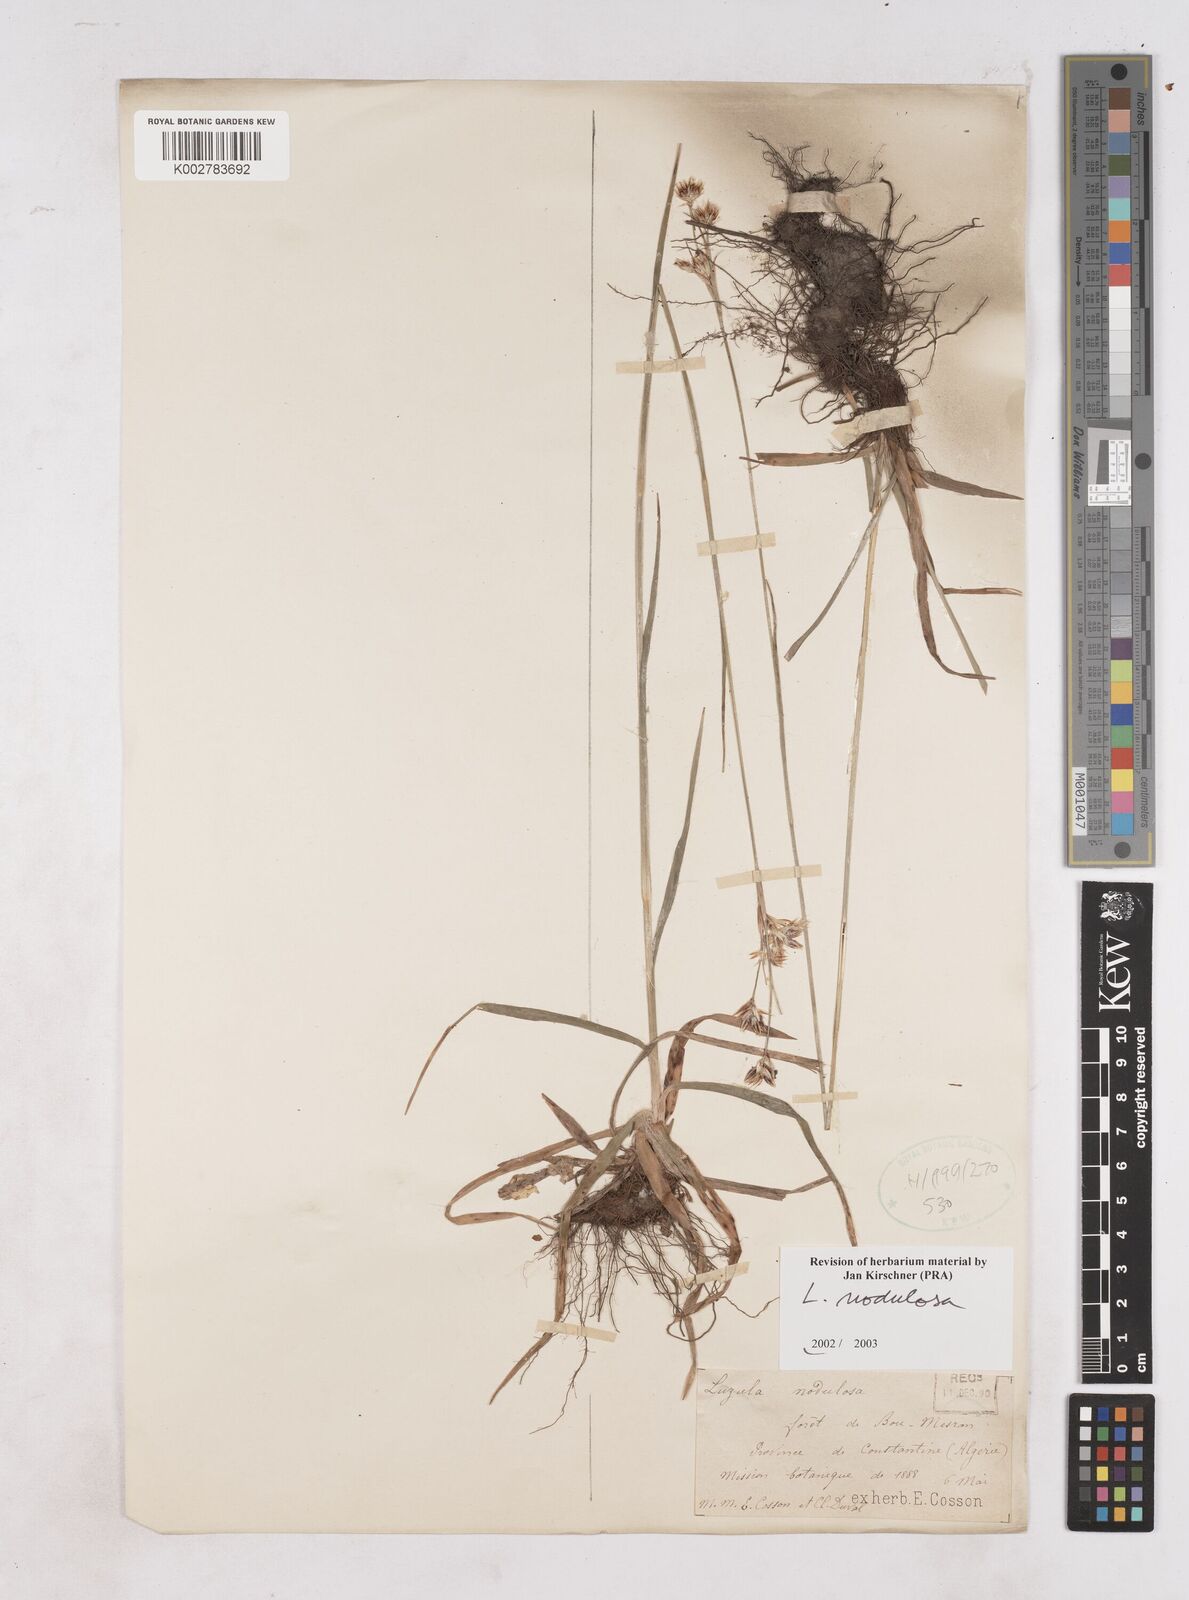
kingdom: Plantae
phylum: Tracheophyta
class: Liliopsida
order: Poales
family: Juncaceae
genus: Luzula
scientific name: Luzula nodulosa
